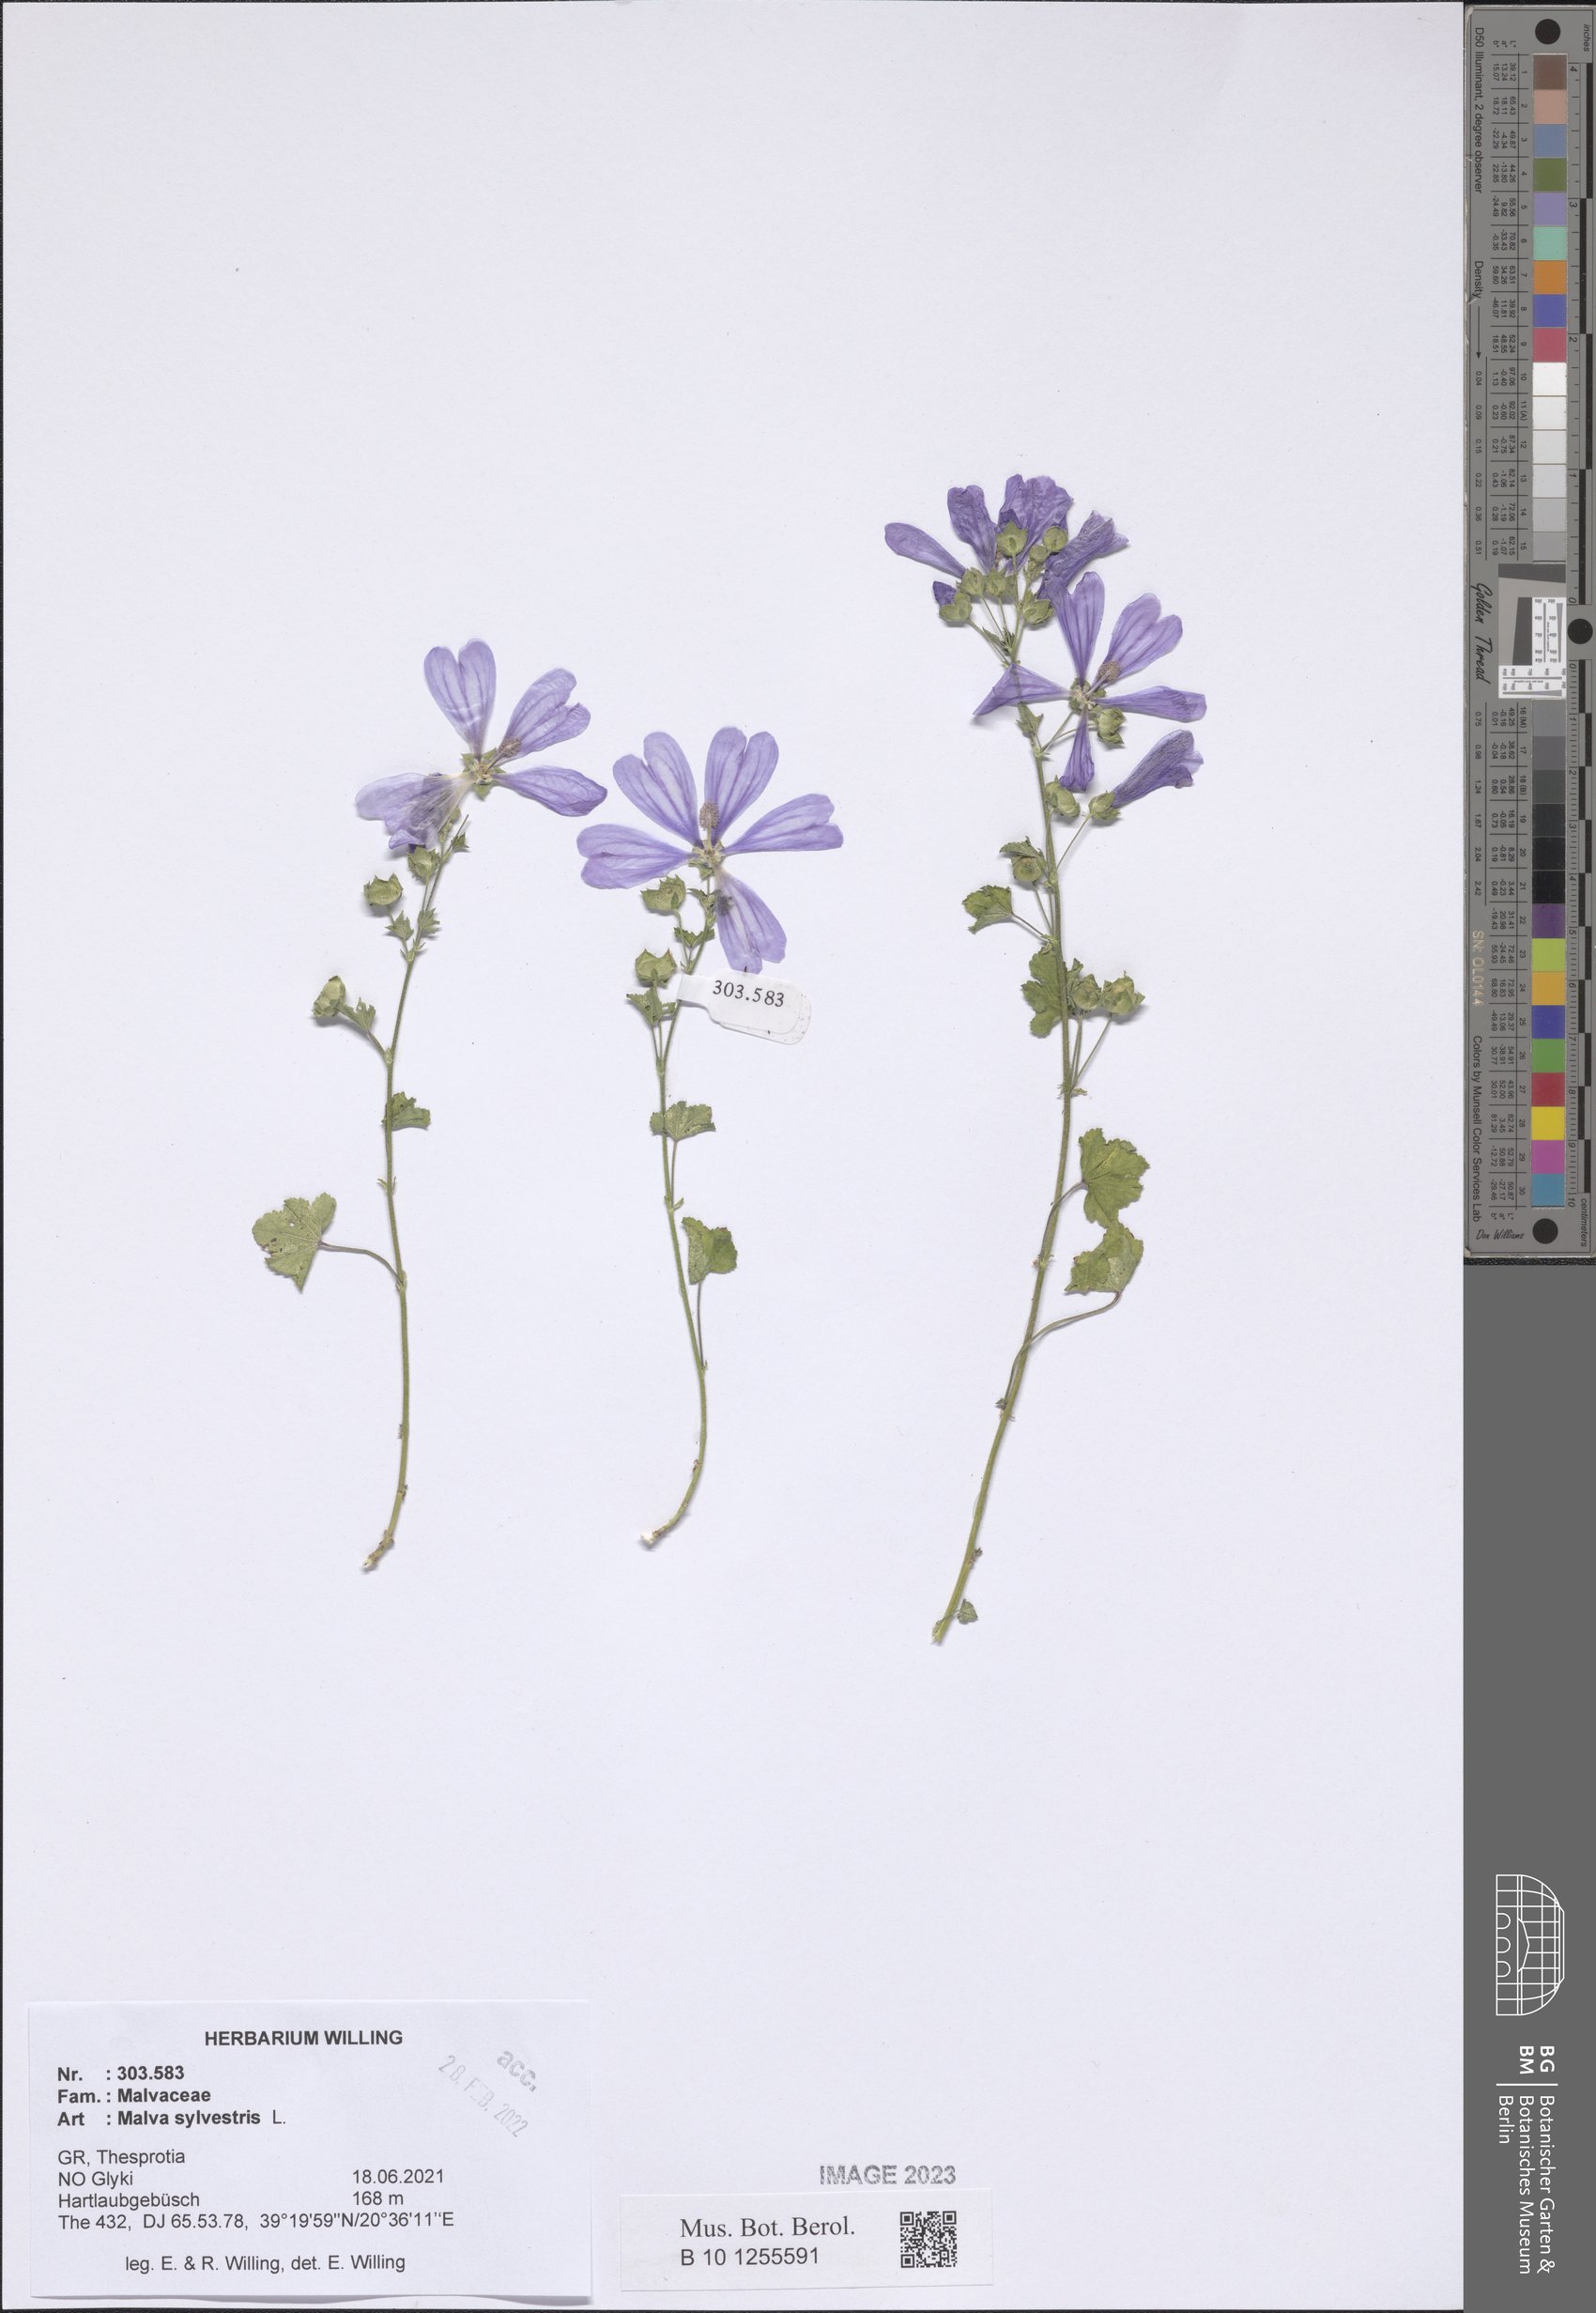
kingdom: Plantae
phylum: Tracheophyta
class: Magnoliopsida
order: Malvales
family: Malvaceae
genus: Malva
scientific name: Malva sylvestris
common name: Common mallow
